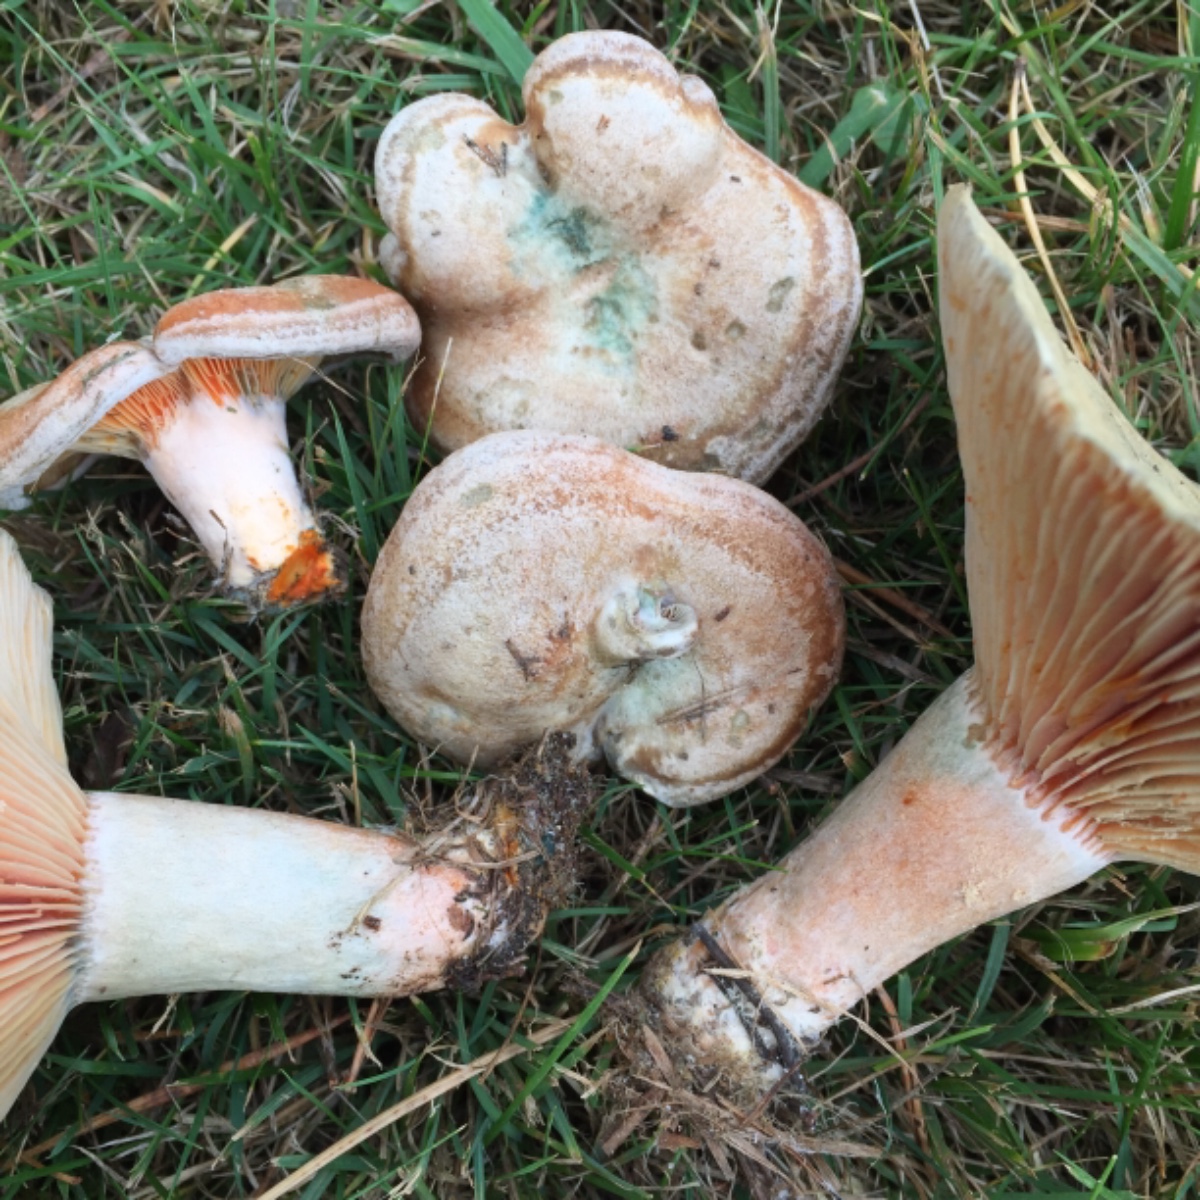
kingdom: Fungi
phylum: Basidiomycota
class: Agaricomycetes
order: Russulales
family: Russulaceae
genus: Lactarius
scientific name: Lactarius quieticolor
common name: tvefarvet mælkehat
